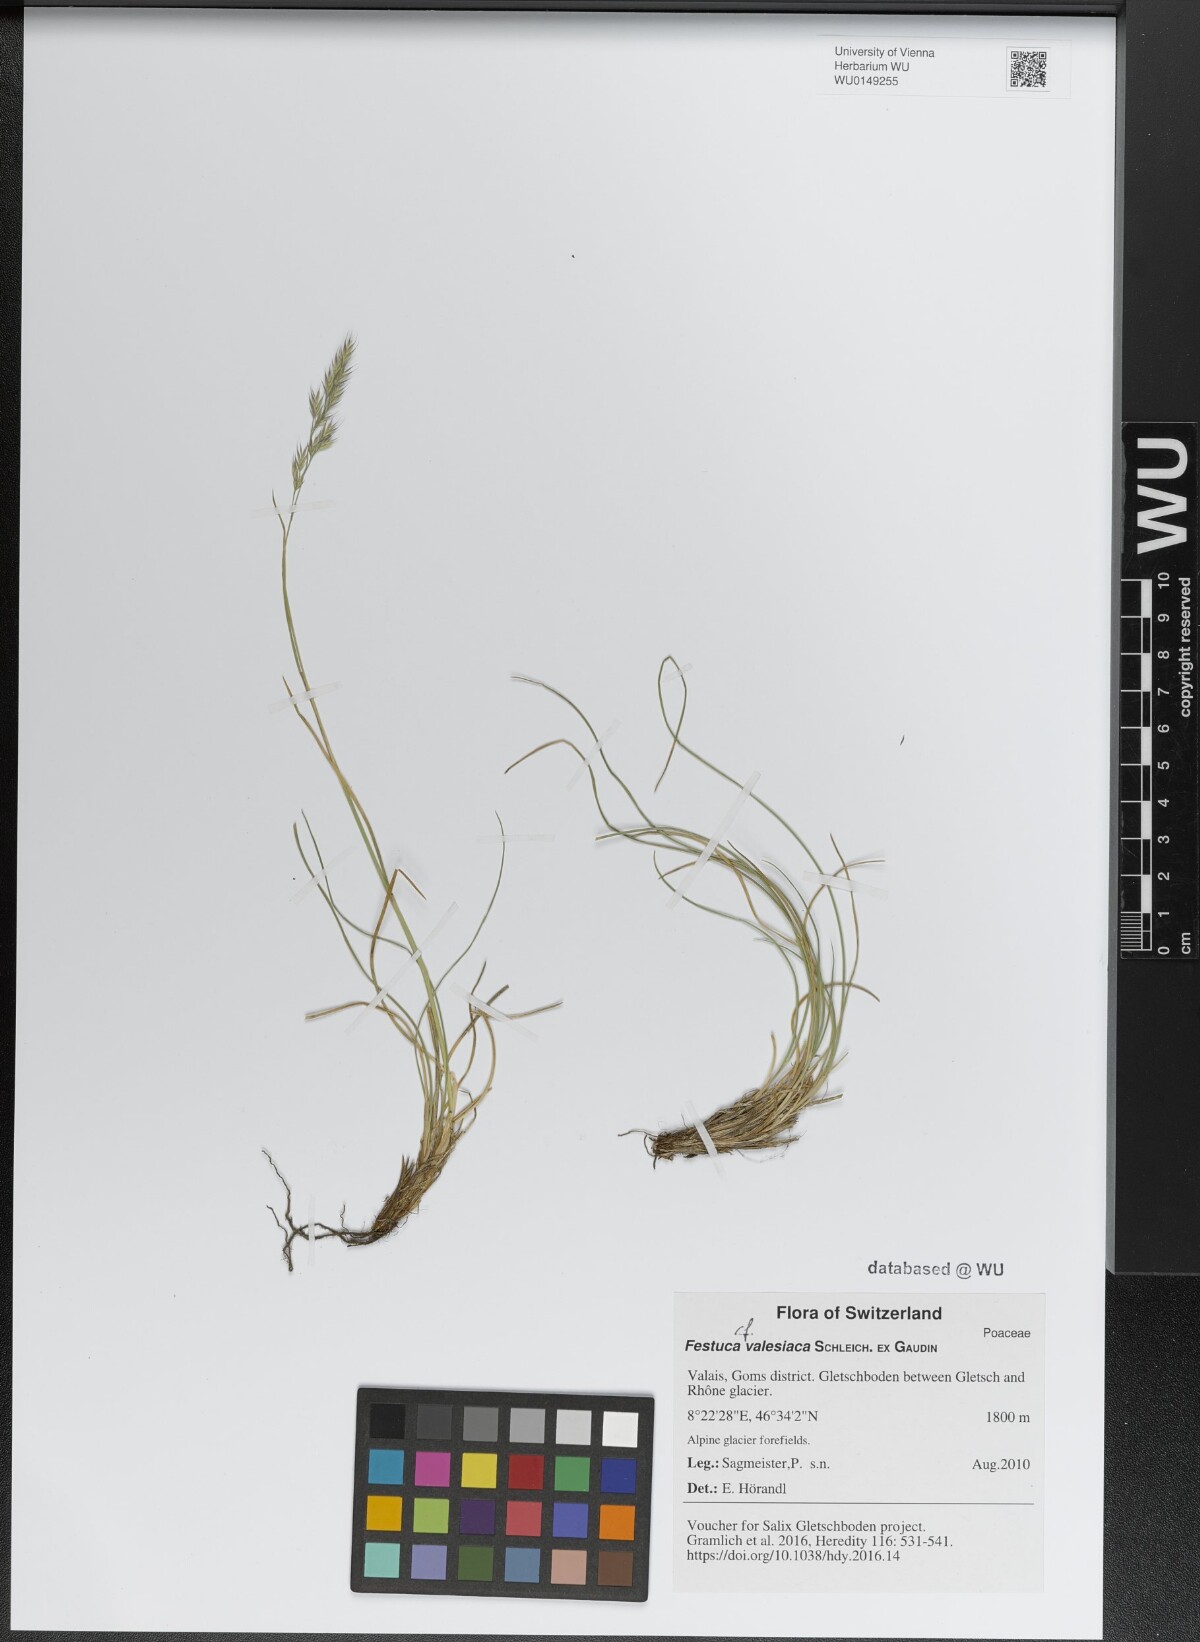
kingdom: Plantae
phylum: Tracheophyta
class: Liliopsida
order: Poales
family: Poaceae
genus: Festuca
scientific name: Festuca valesiaca
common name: Volga fescue
